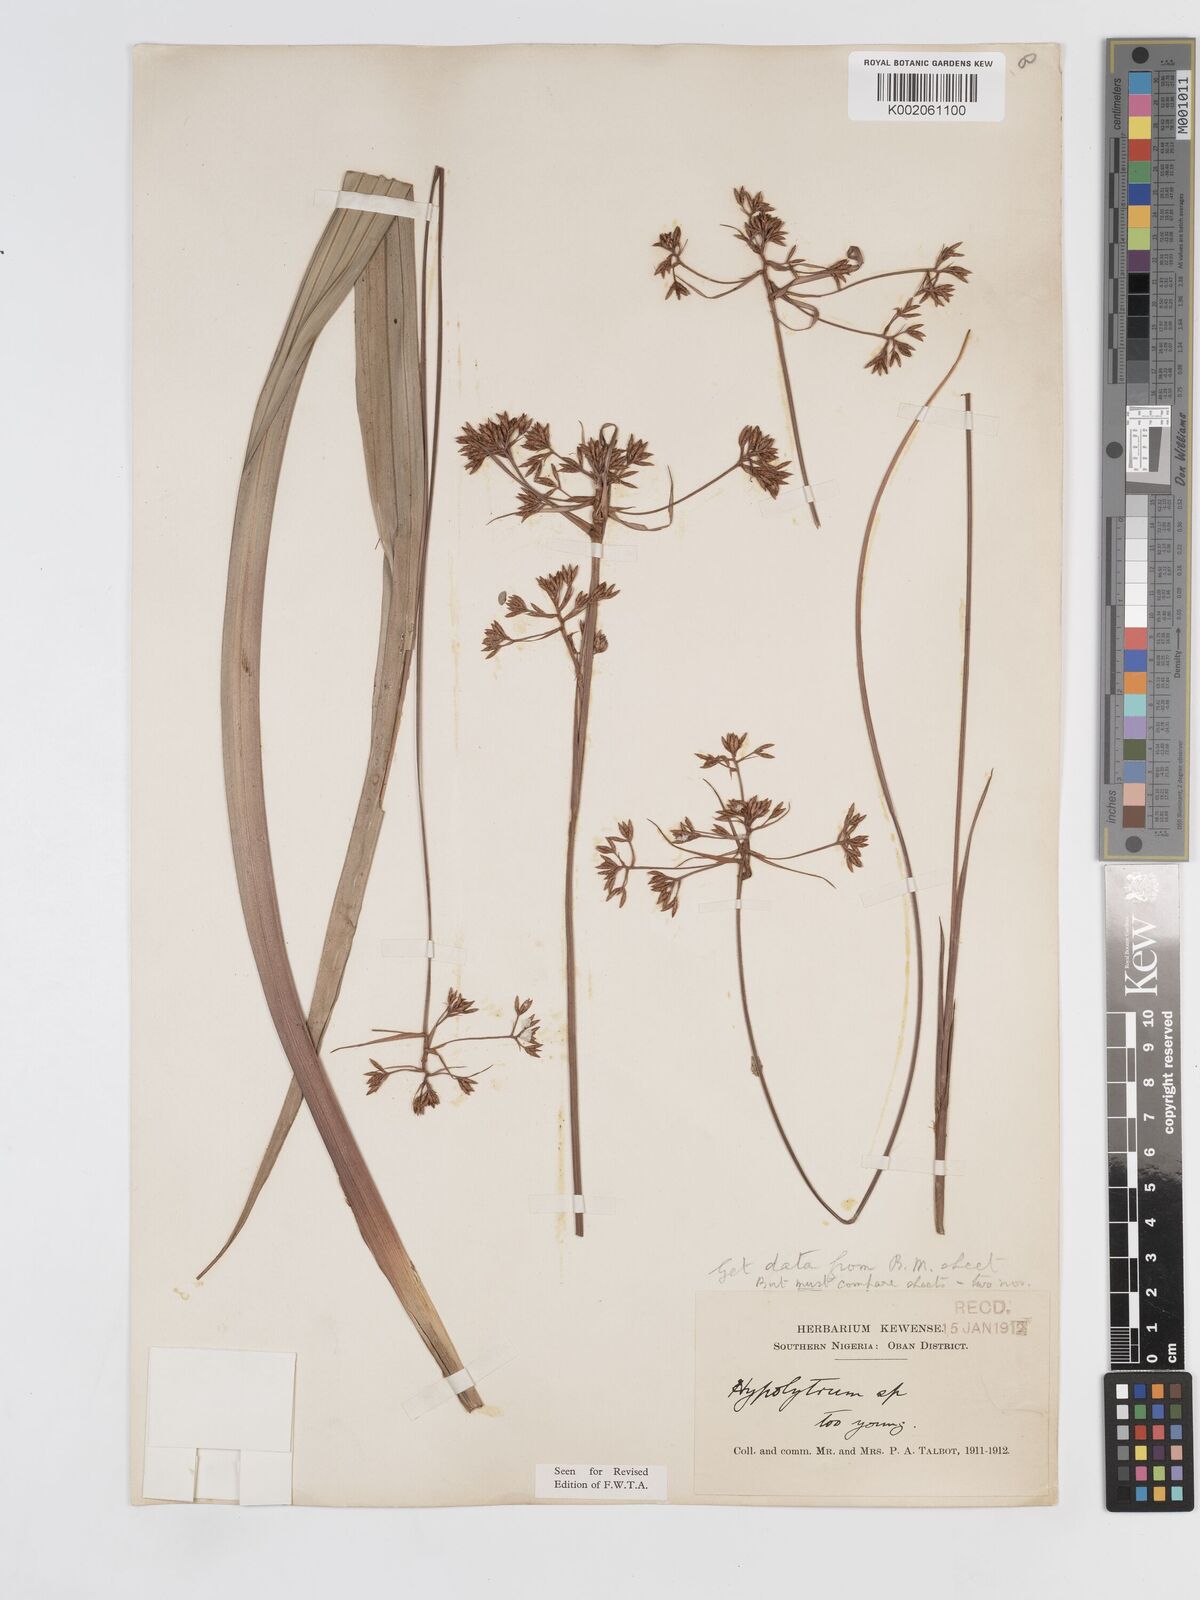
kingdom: Plantae
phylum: Tracheophyta
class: Liliopsida
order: Poales
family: Cyperaceae
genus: Hypolytrum
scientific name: Hypolytrum heteromorphum
